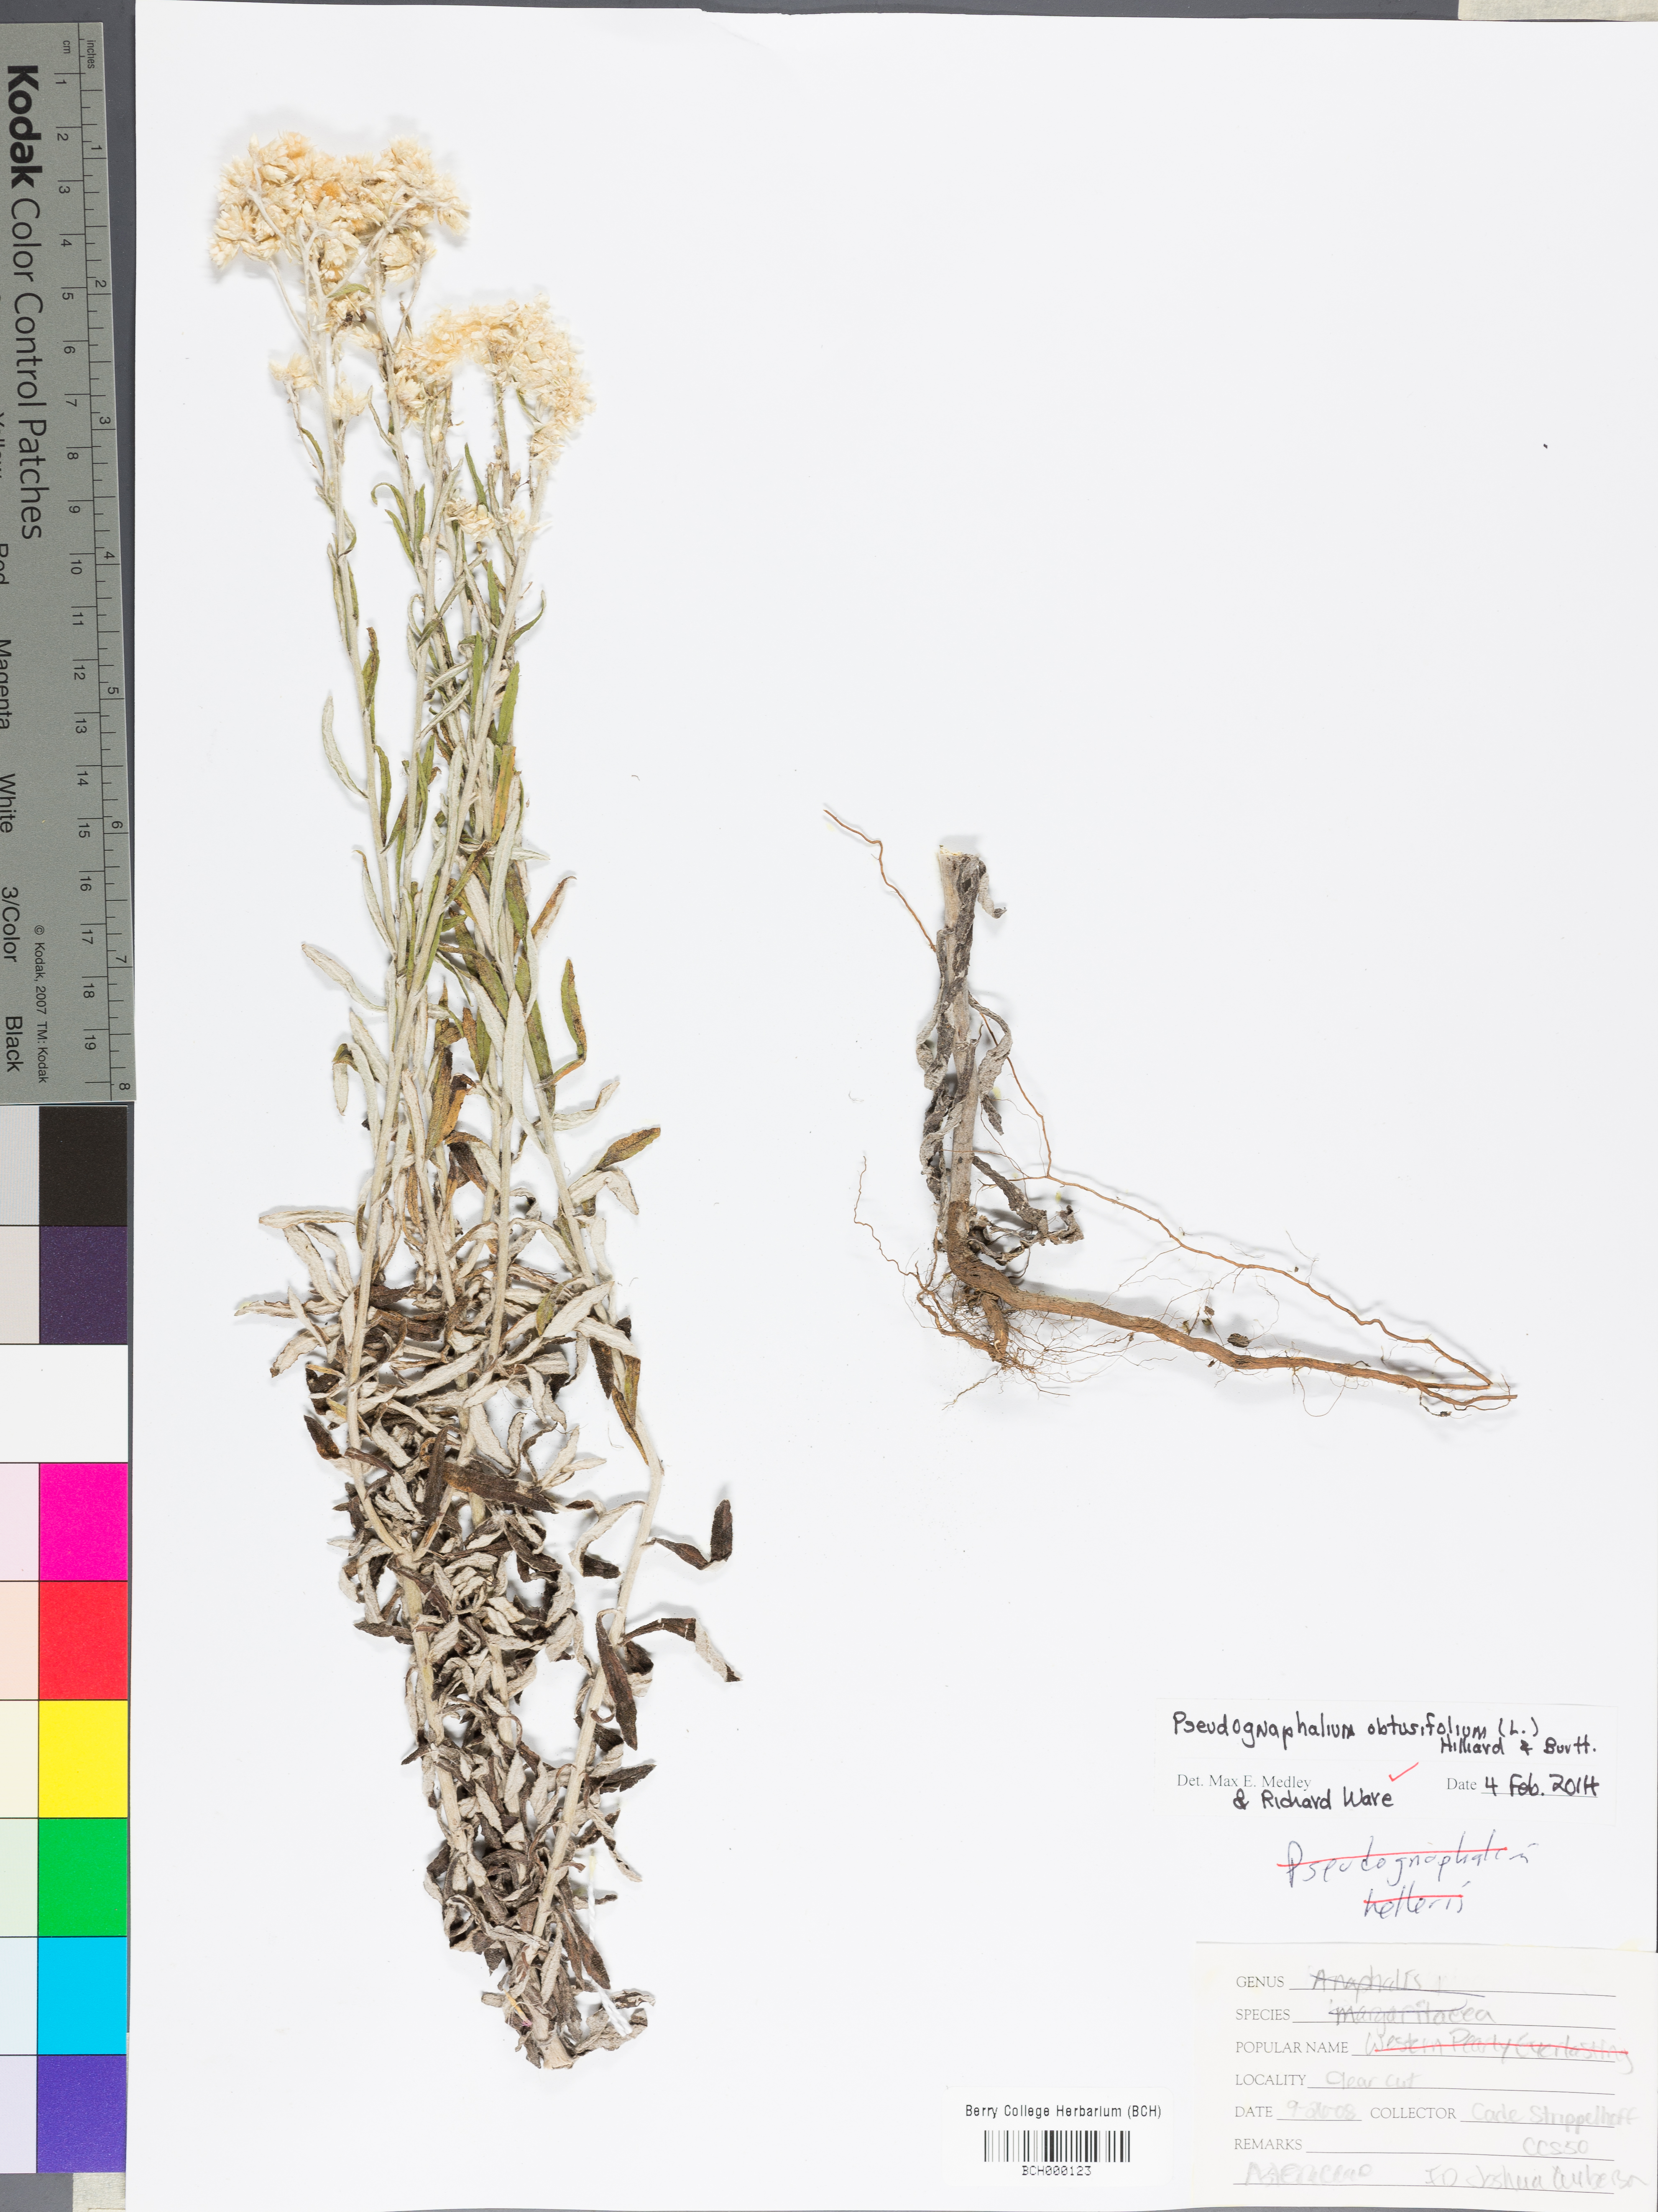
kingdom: Plantae
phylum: Tracheophyta
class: Magnoliopsida
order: Asterales
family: Asteraceae
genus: Pseudognaphalium
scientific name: Pseudognaphalium obtusifolium
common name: Eastern rabbit-tobacco
